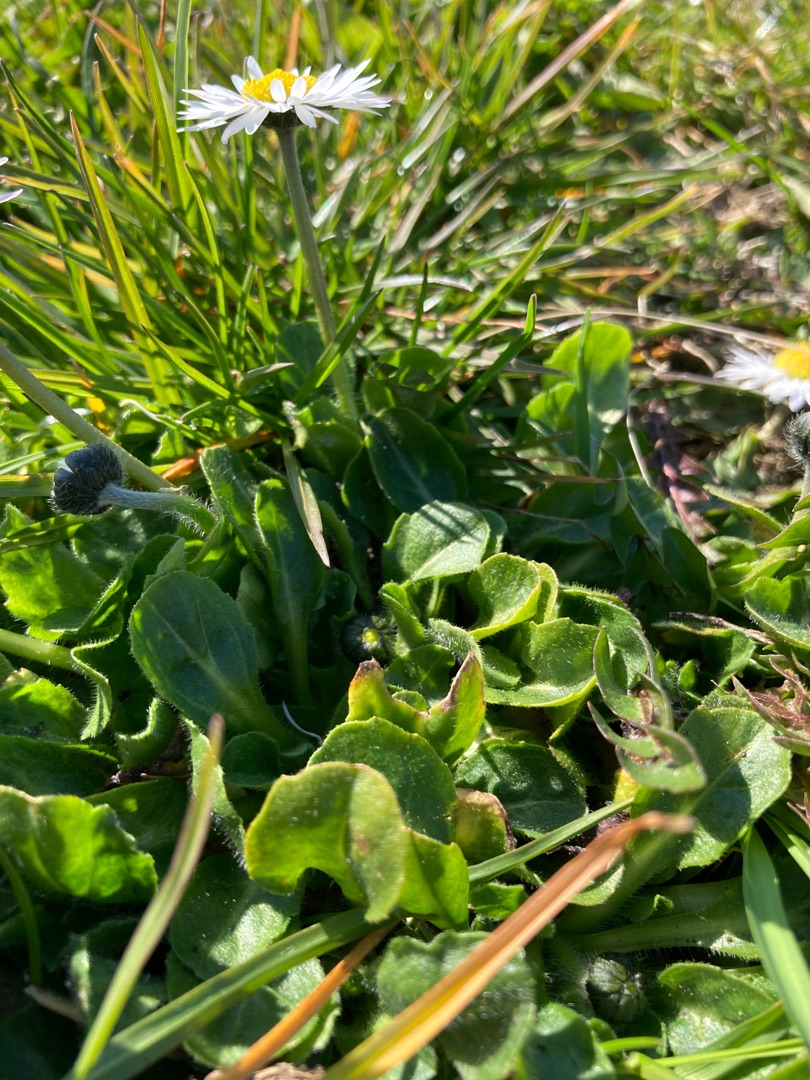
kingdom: Plantae
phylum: Tracheophyta
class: Magnoliopsida
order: Asterales
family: Asteraceae
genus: Bellis
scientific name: Bellis perennis
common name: Tusindfryd
